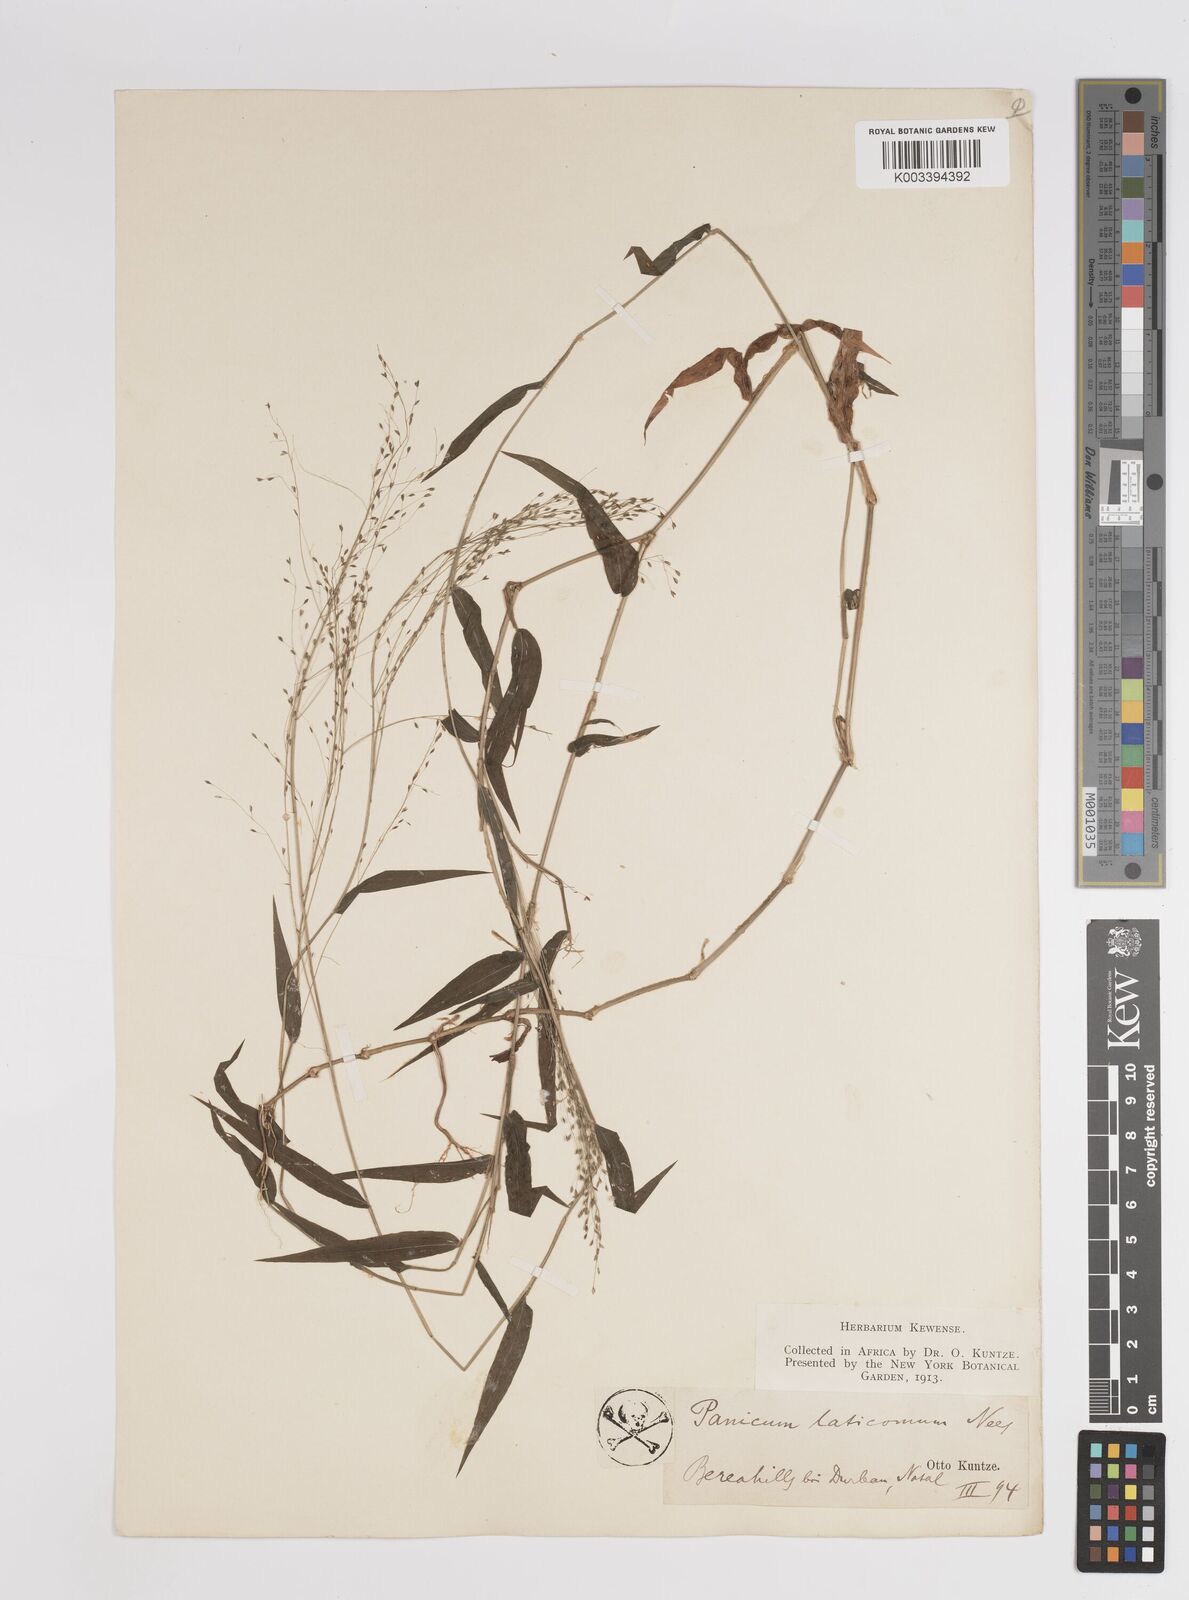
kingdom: Plantae
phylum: Tracheophyta
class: Liliopsida
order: Poales
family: Poaceae
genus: Panicum
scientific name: Panicum laticomum
